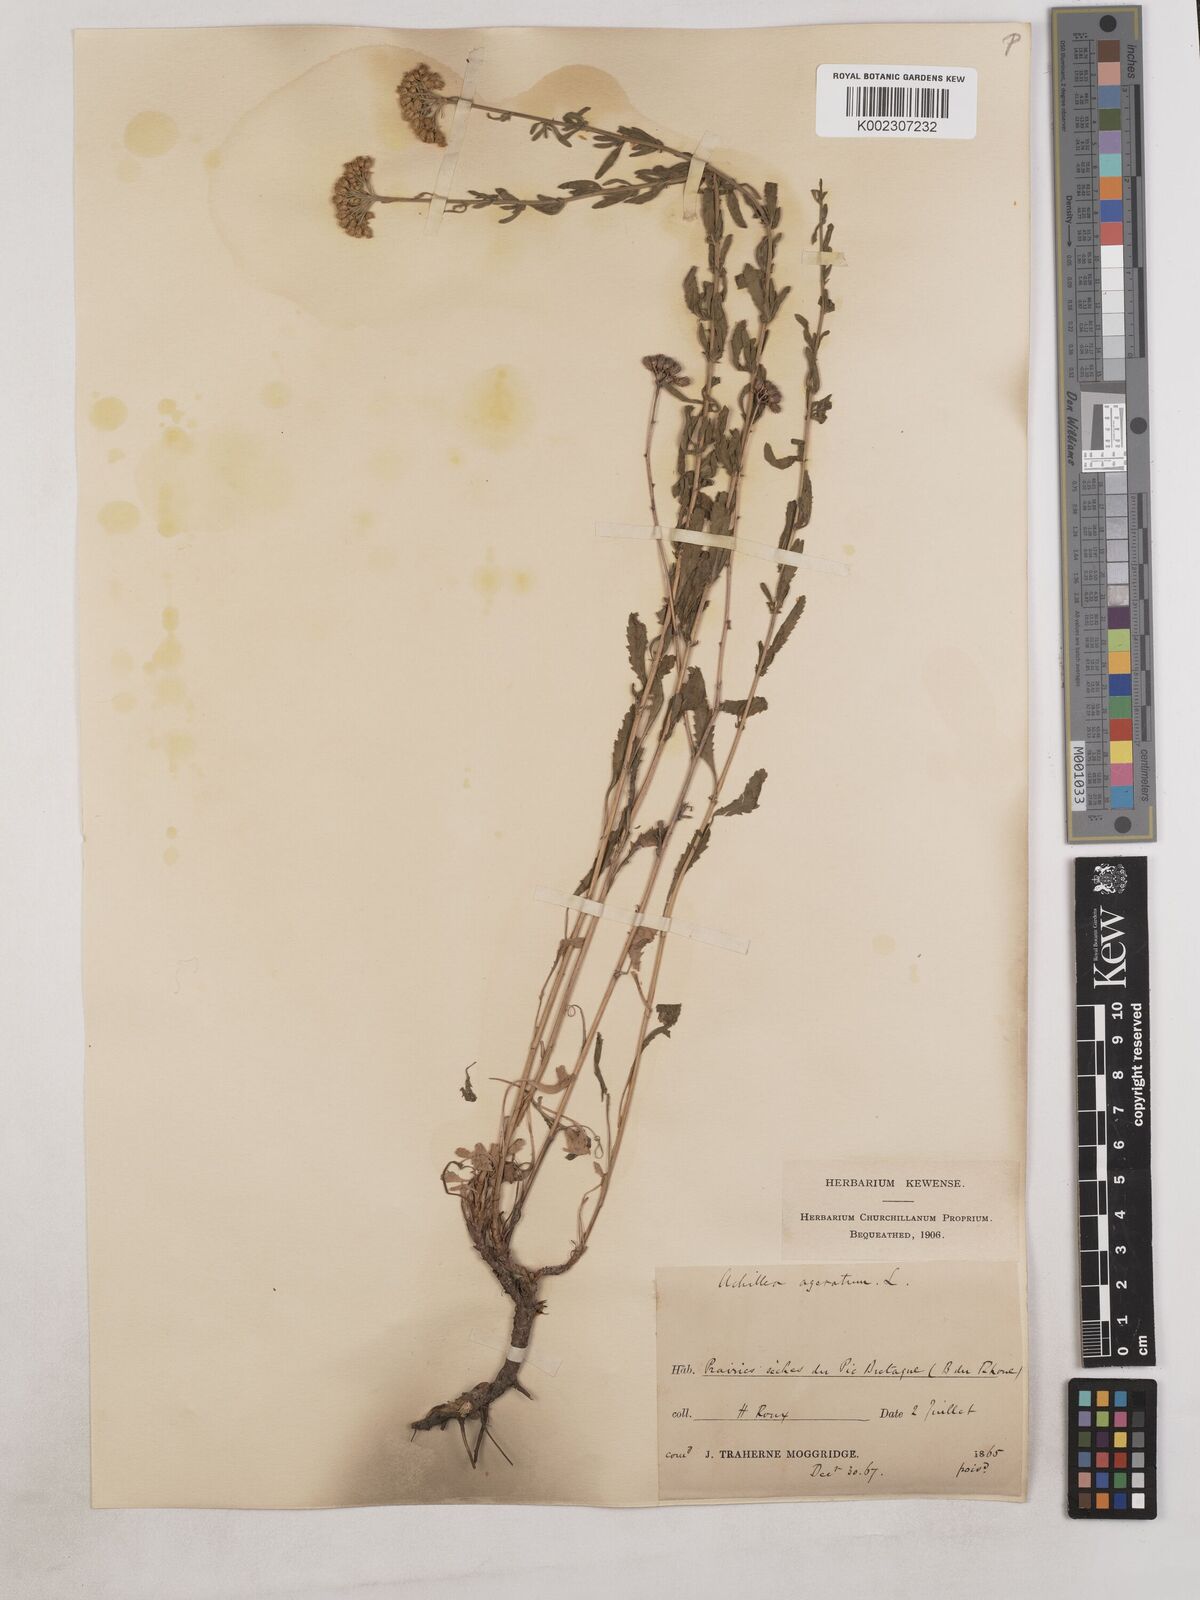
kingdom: Plantae
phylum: Tracheophyta
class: Magnoliopsida
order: Asterales
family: Asteraceae
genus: Achillea
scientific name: Achillea ageratum
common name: Sweet-nancy
